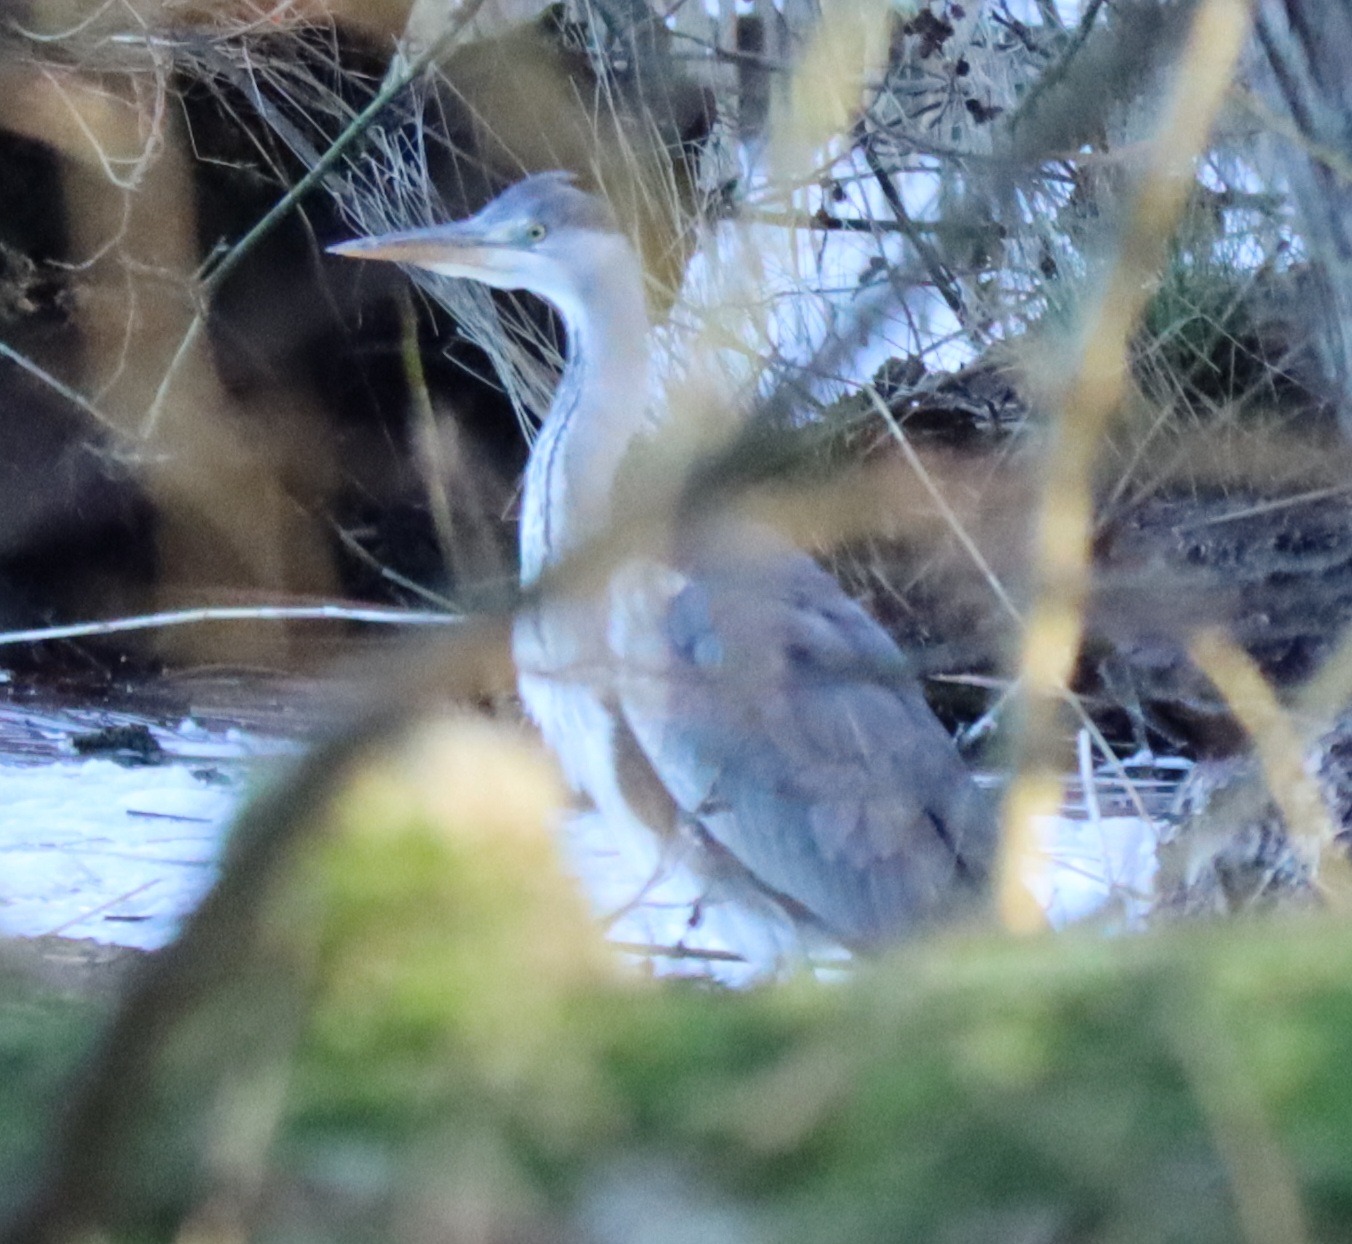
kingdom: Animalia
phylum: Chordata
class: Aves
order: Pelecaniformes
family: Ardeidae
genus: Ardea
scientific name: Ardea cinerea
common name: Fiskehejre
